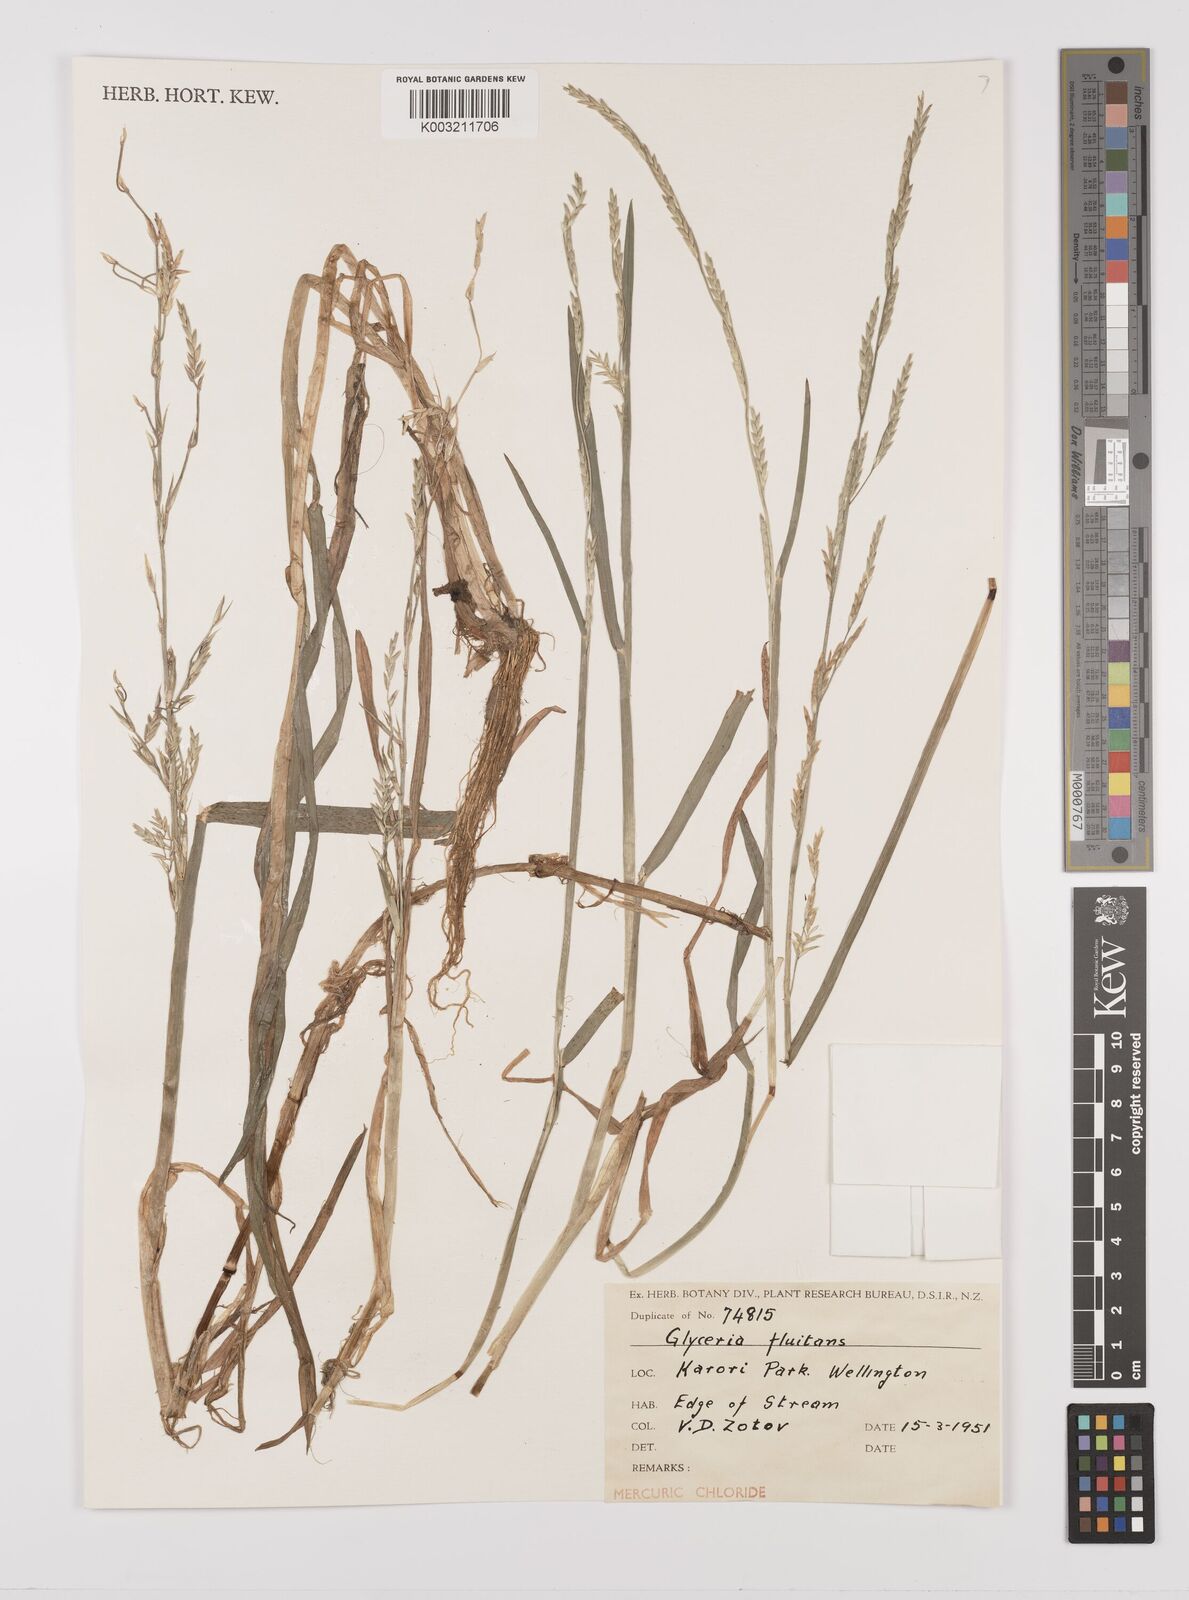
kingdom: Plantae
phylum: Tracheophyta
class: Liliopsida
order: Poales
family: Poaceae
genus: Glyceria
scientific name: Glyceria fluitans
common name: Floating sweet-grass
